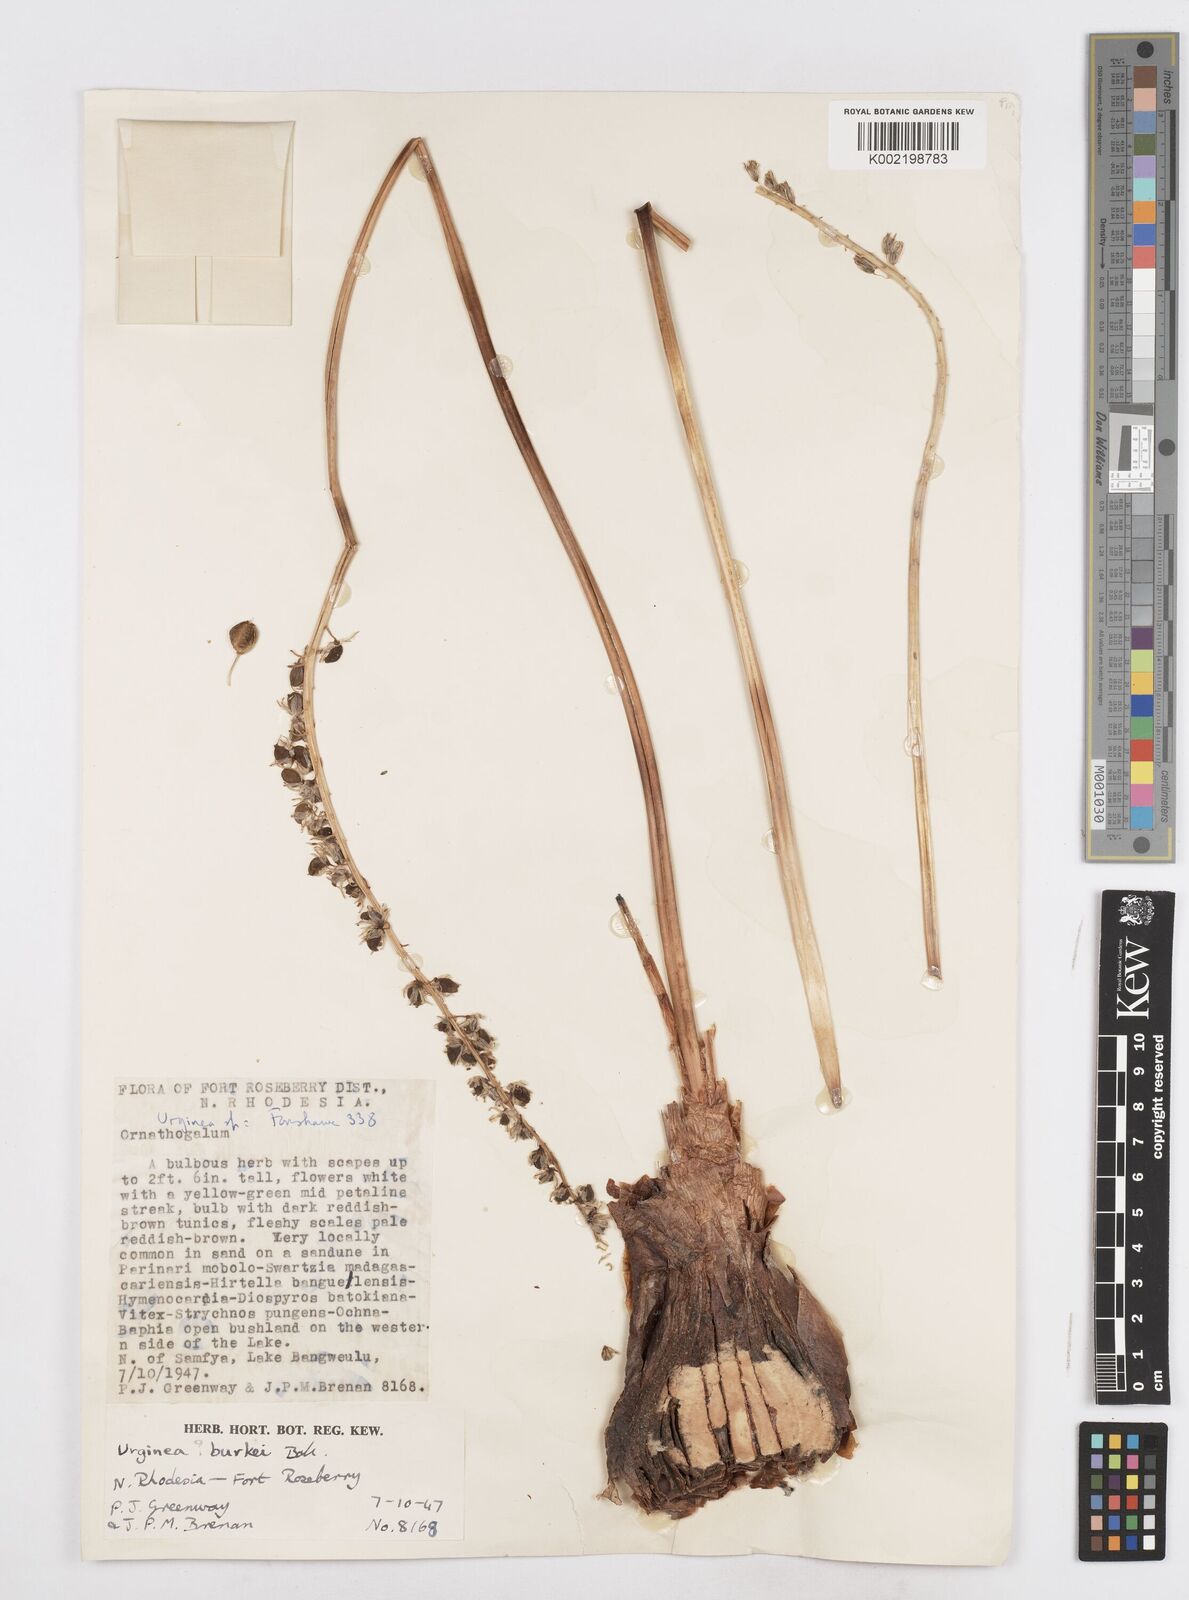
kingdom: Plantae
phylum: Tracheophyta
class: Liliopsida
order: Asparagales
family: Asparagaceae
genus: Drimia
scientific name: Drimia sanguinea
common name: Transvaal slangkop
